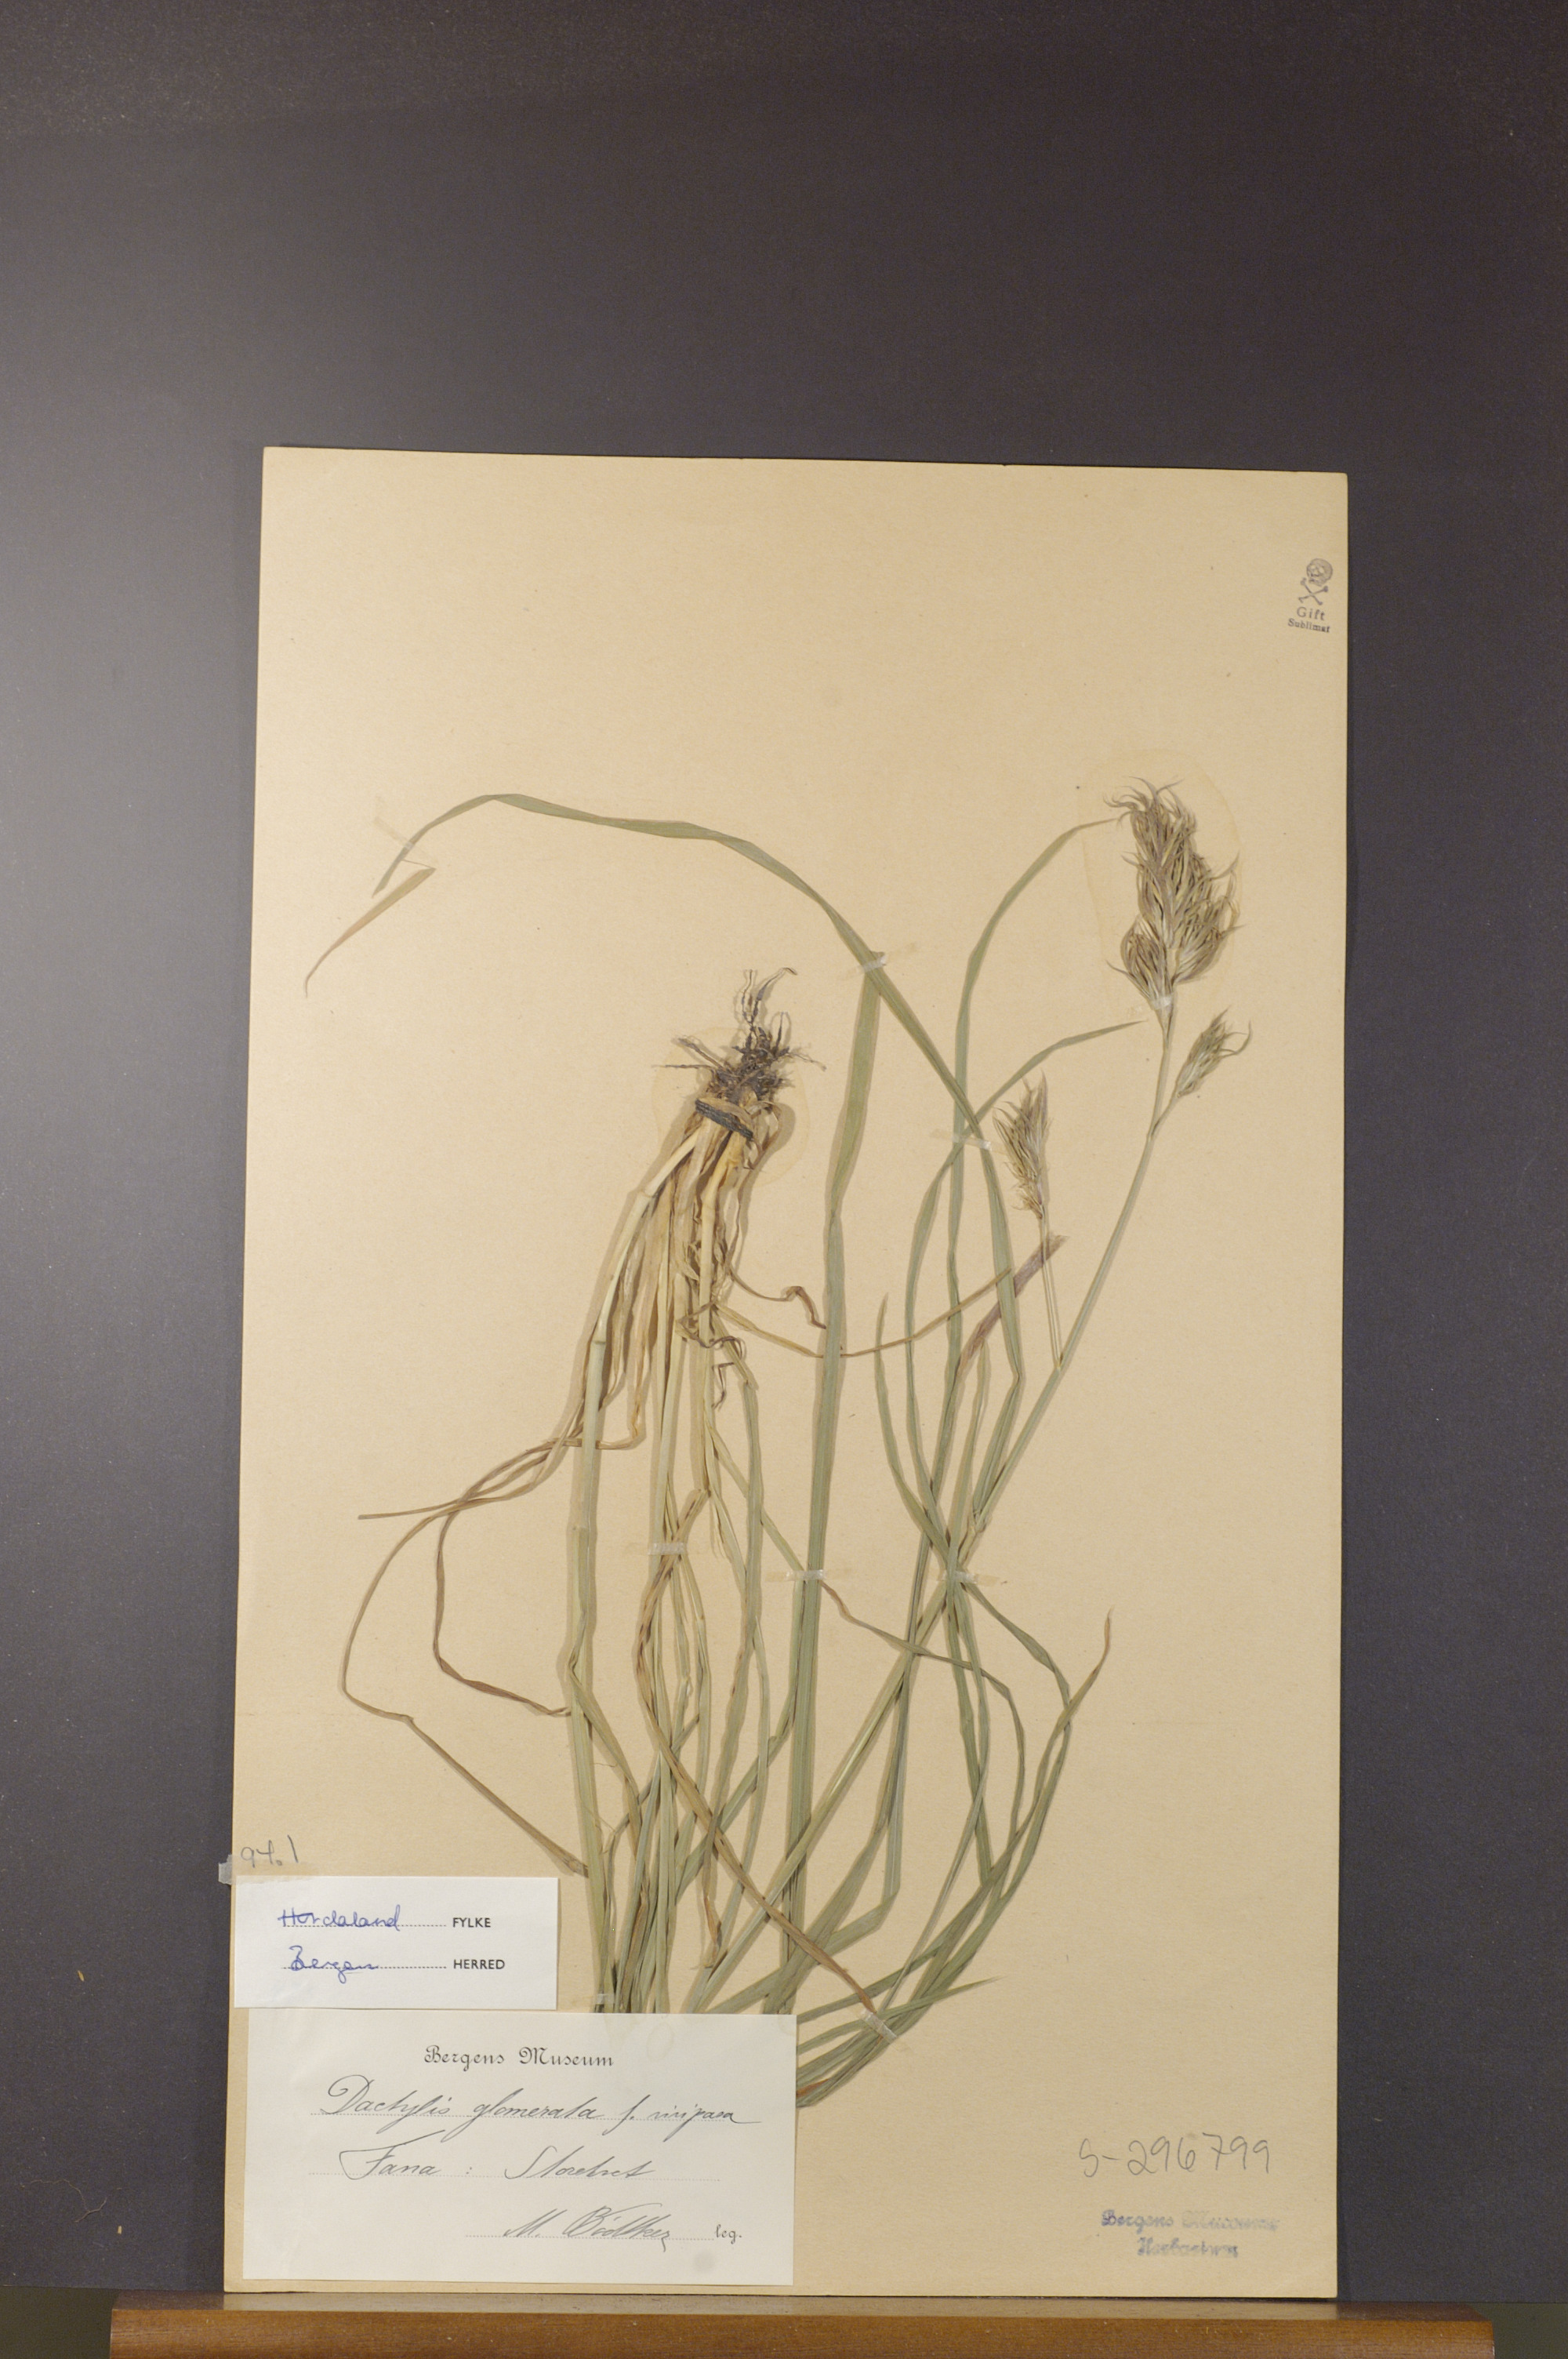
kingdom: Plantae
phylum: Tracheophyta
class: Liliopsida
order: Poales
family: Poaceae
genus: Dactylis
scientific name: Dactylis glomerata
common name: Orchardgrass
